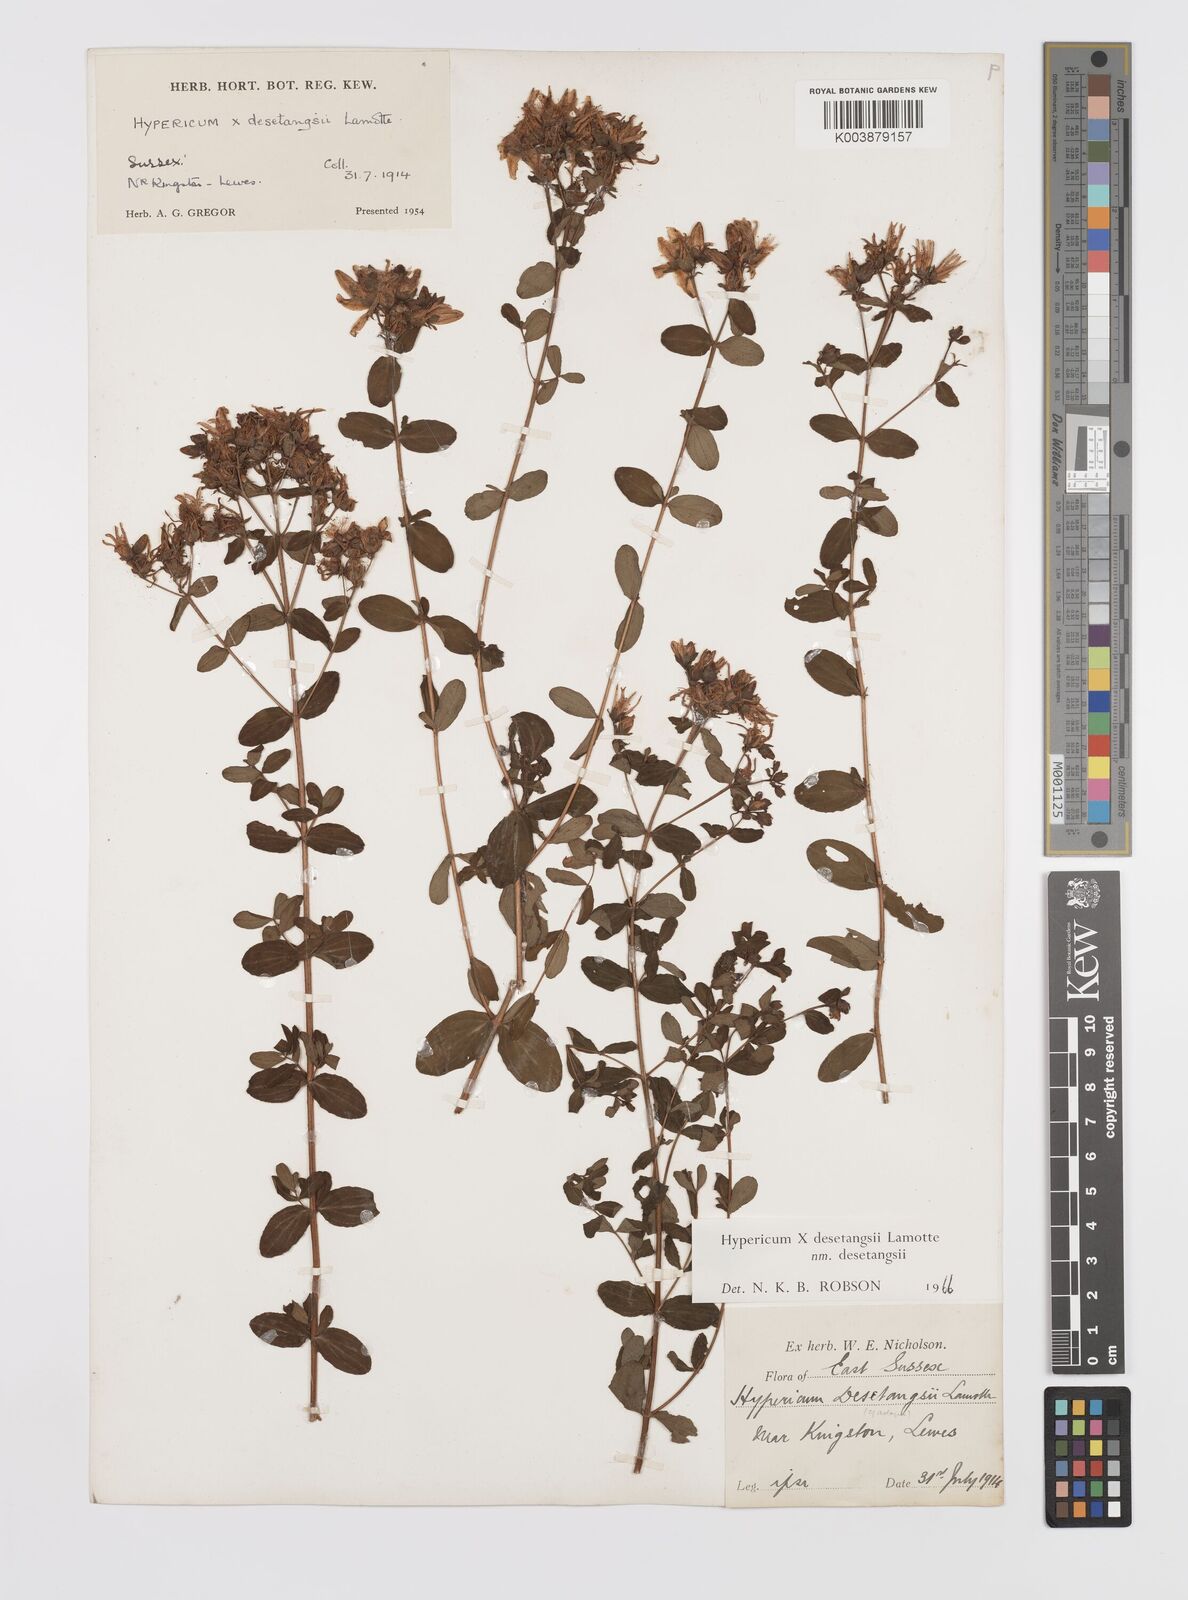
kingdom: Plantae
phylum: Tracheophyta
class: Magnoliopsida
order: Malpighiales
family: Hypericaceae
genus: Hypericum
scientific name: Hypericum desetangsii
